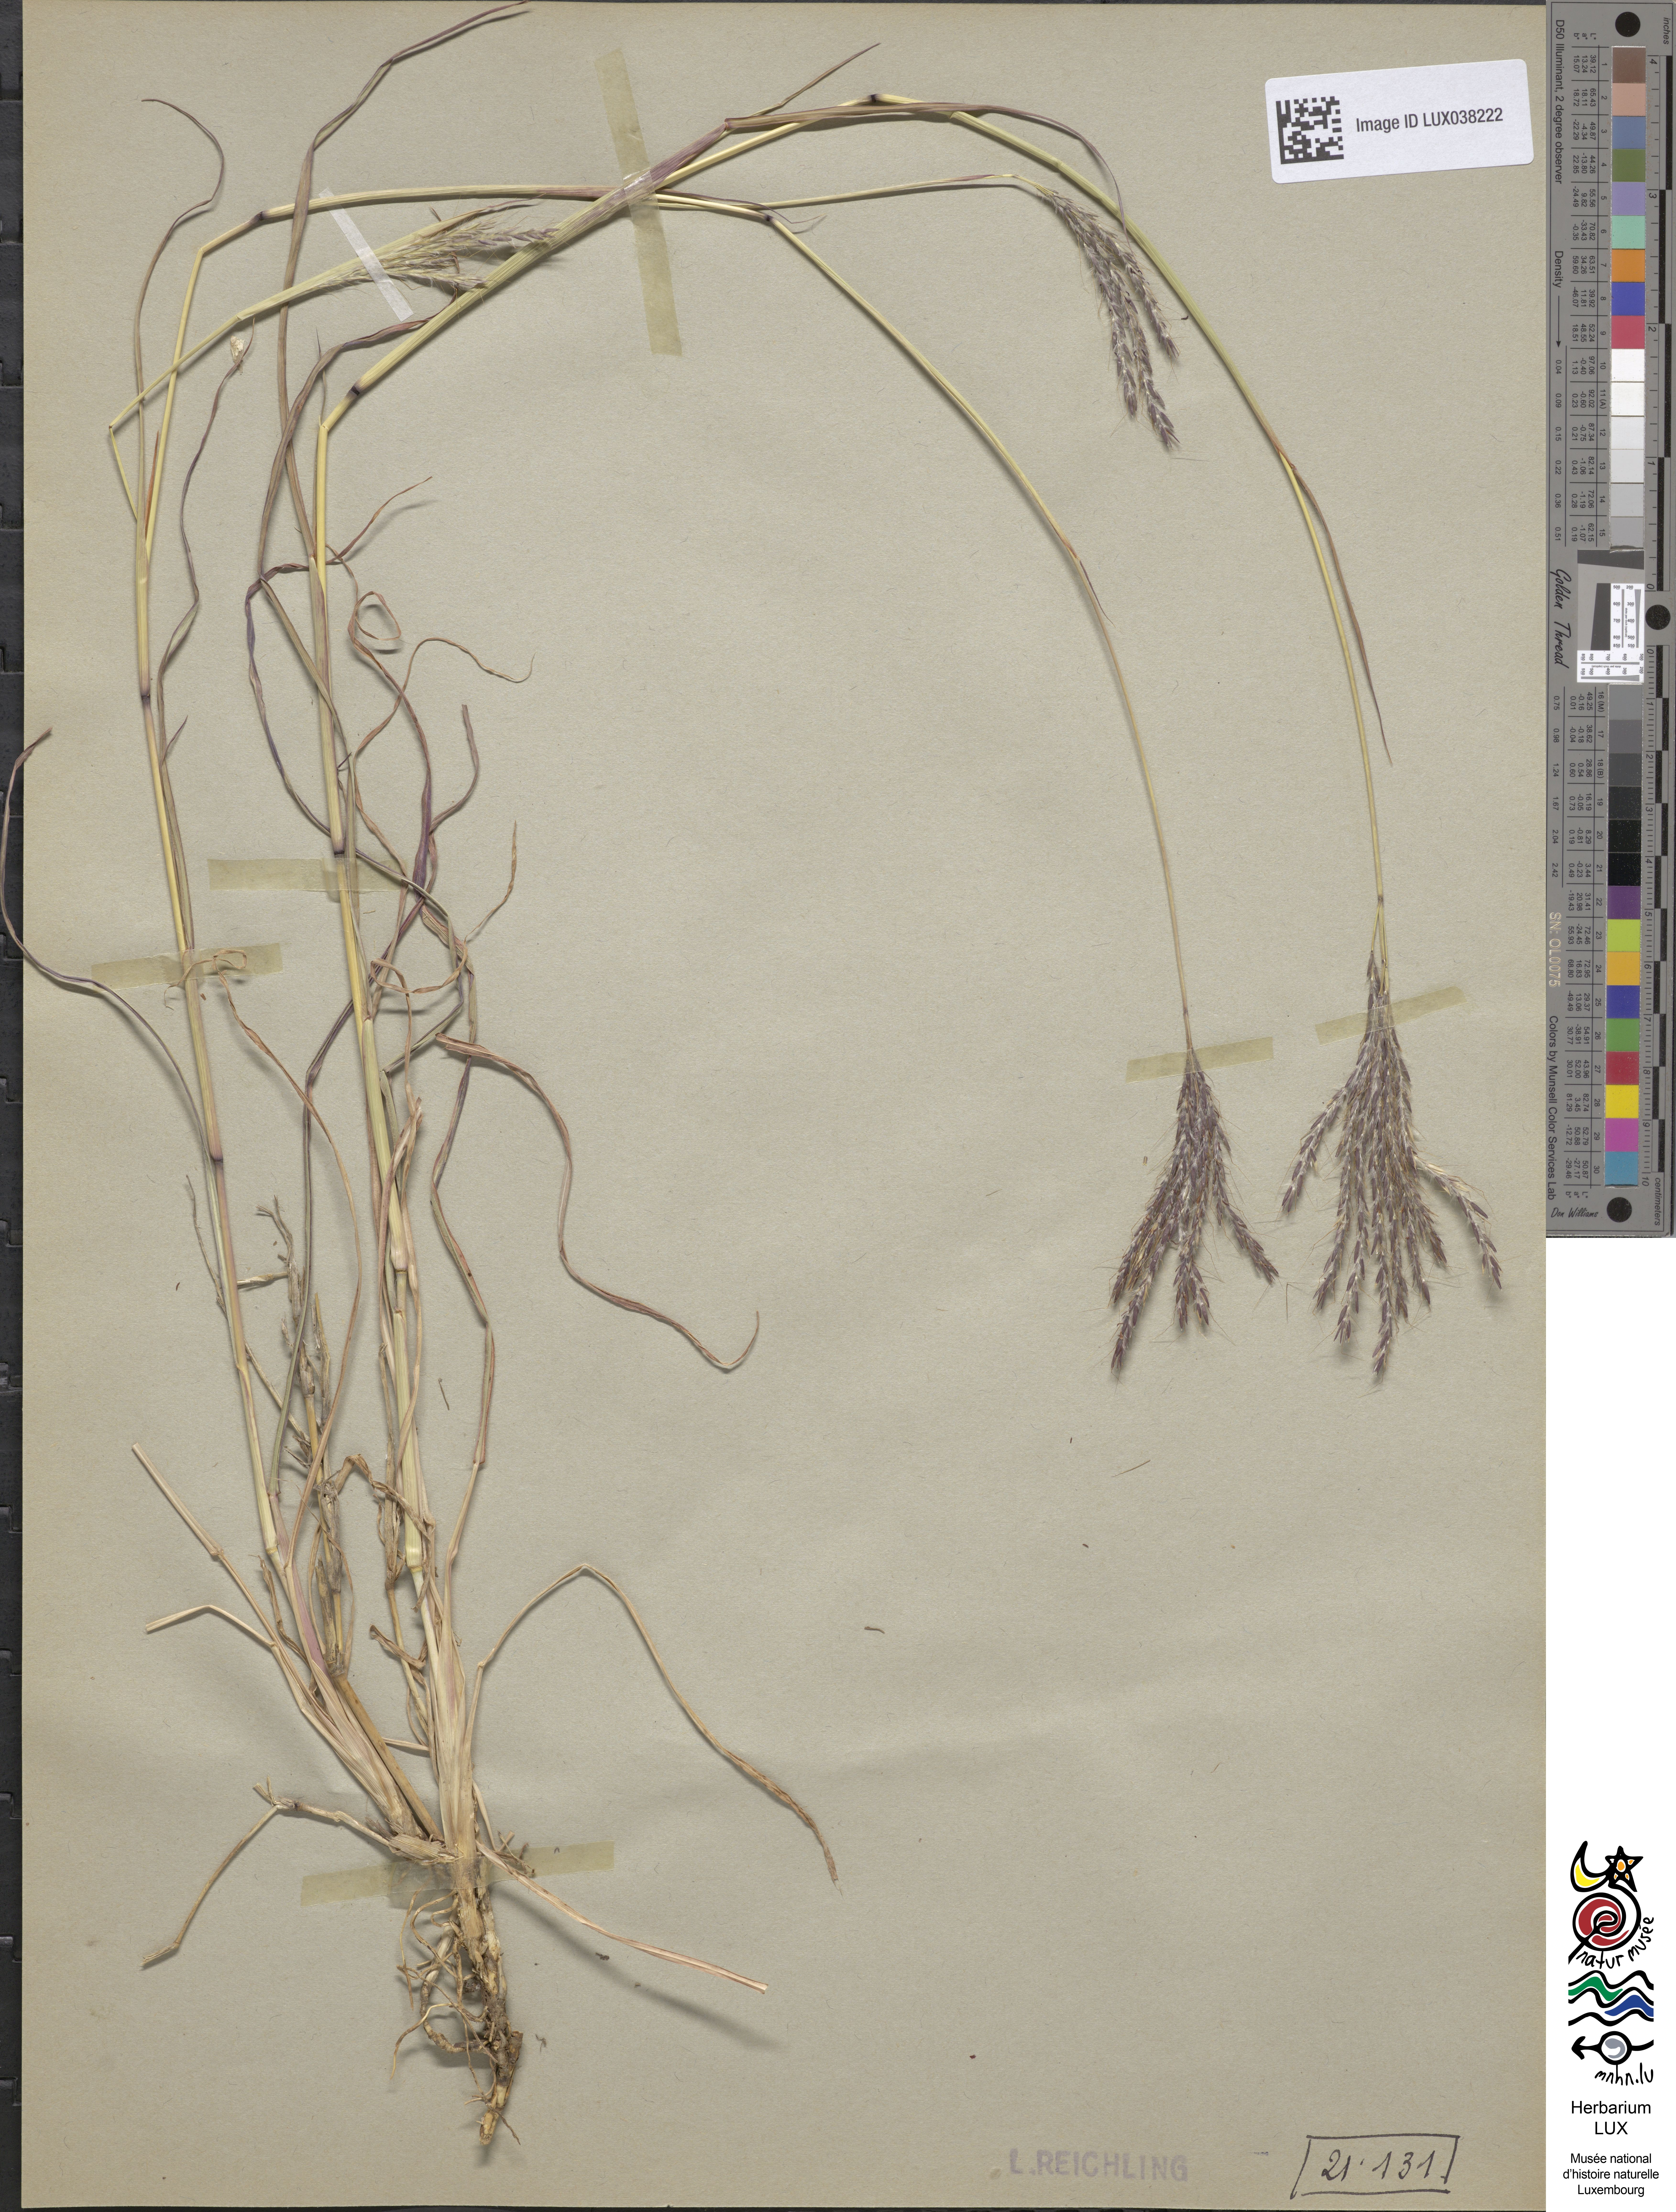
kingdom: Plantae
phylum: Tracheophyta
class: Liliopsida
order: Poales
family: Poaceae
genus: Bothriochloa
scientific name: Bothriochloa ischaemum
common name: Yellow bluestem
